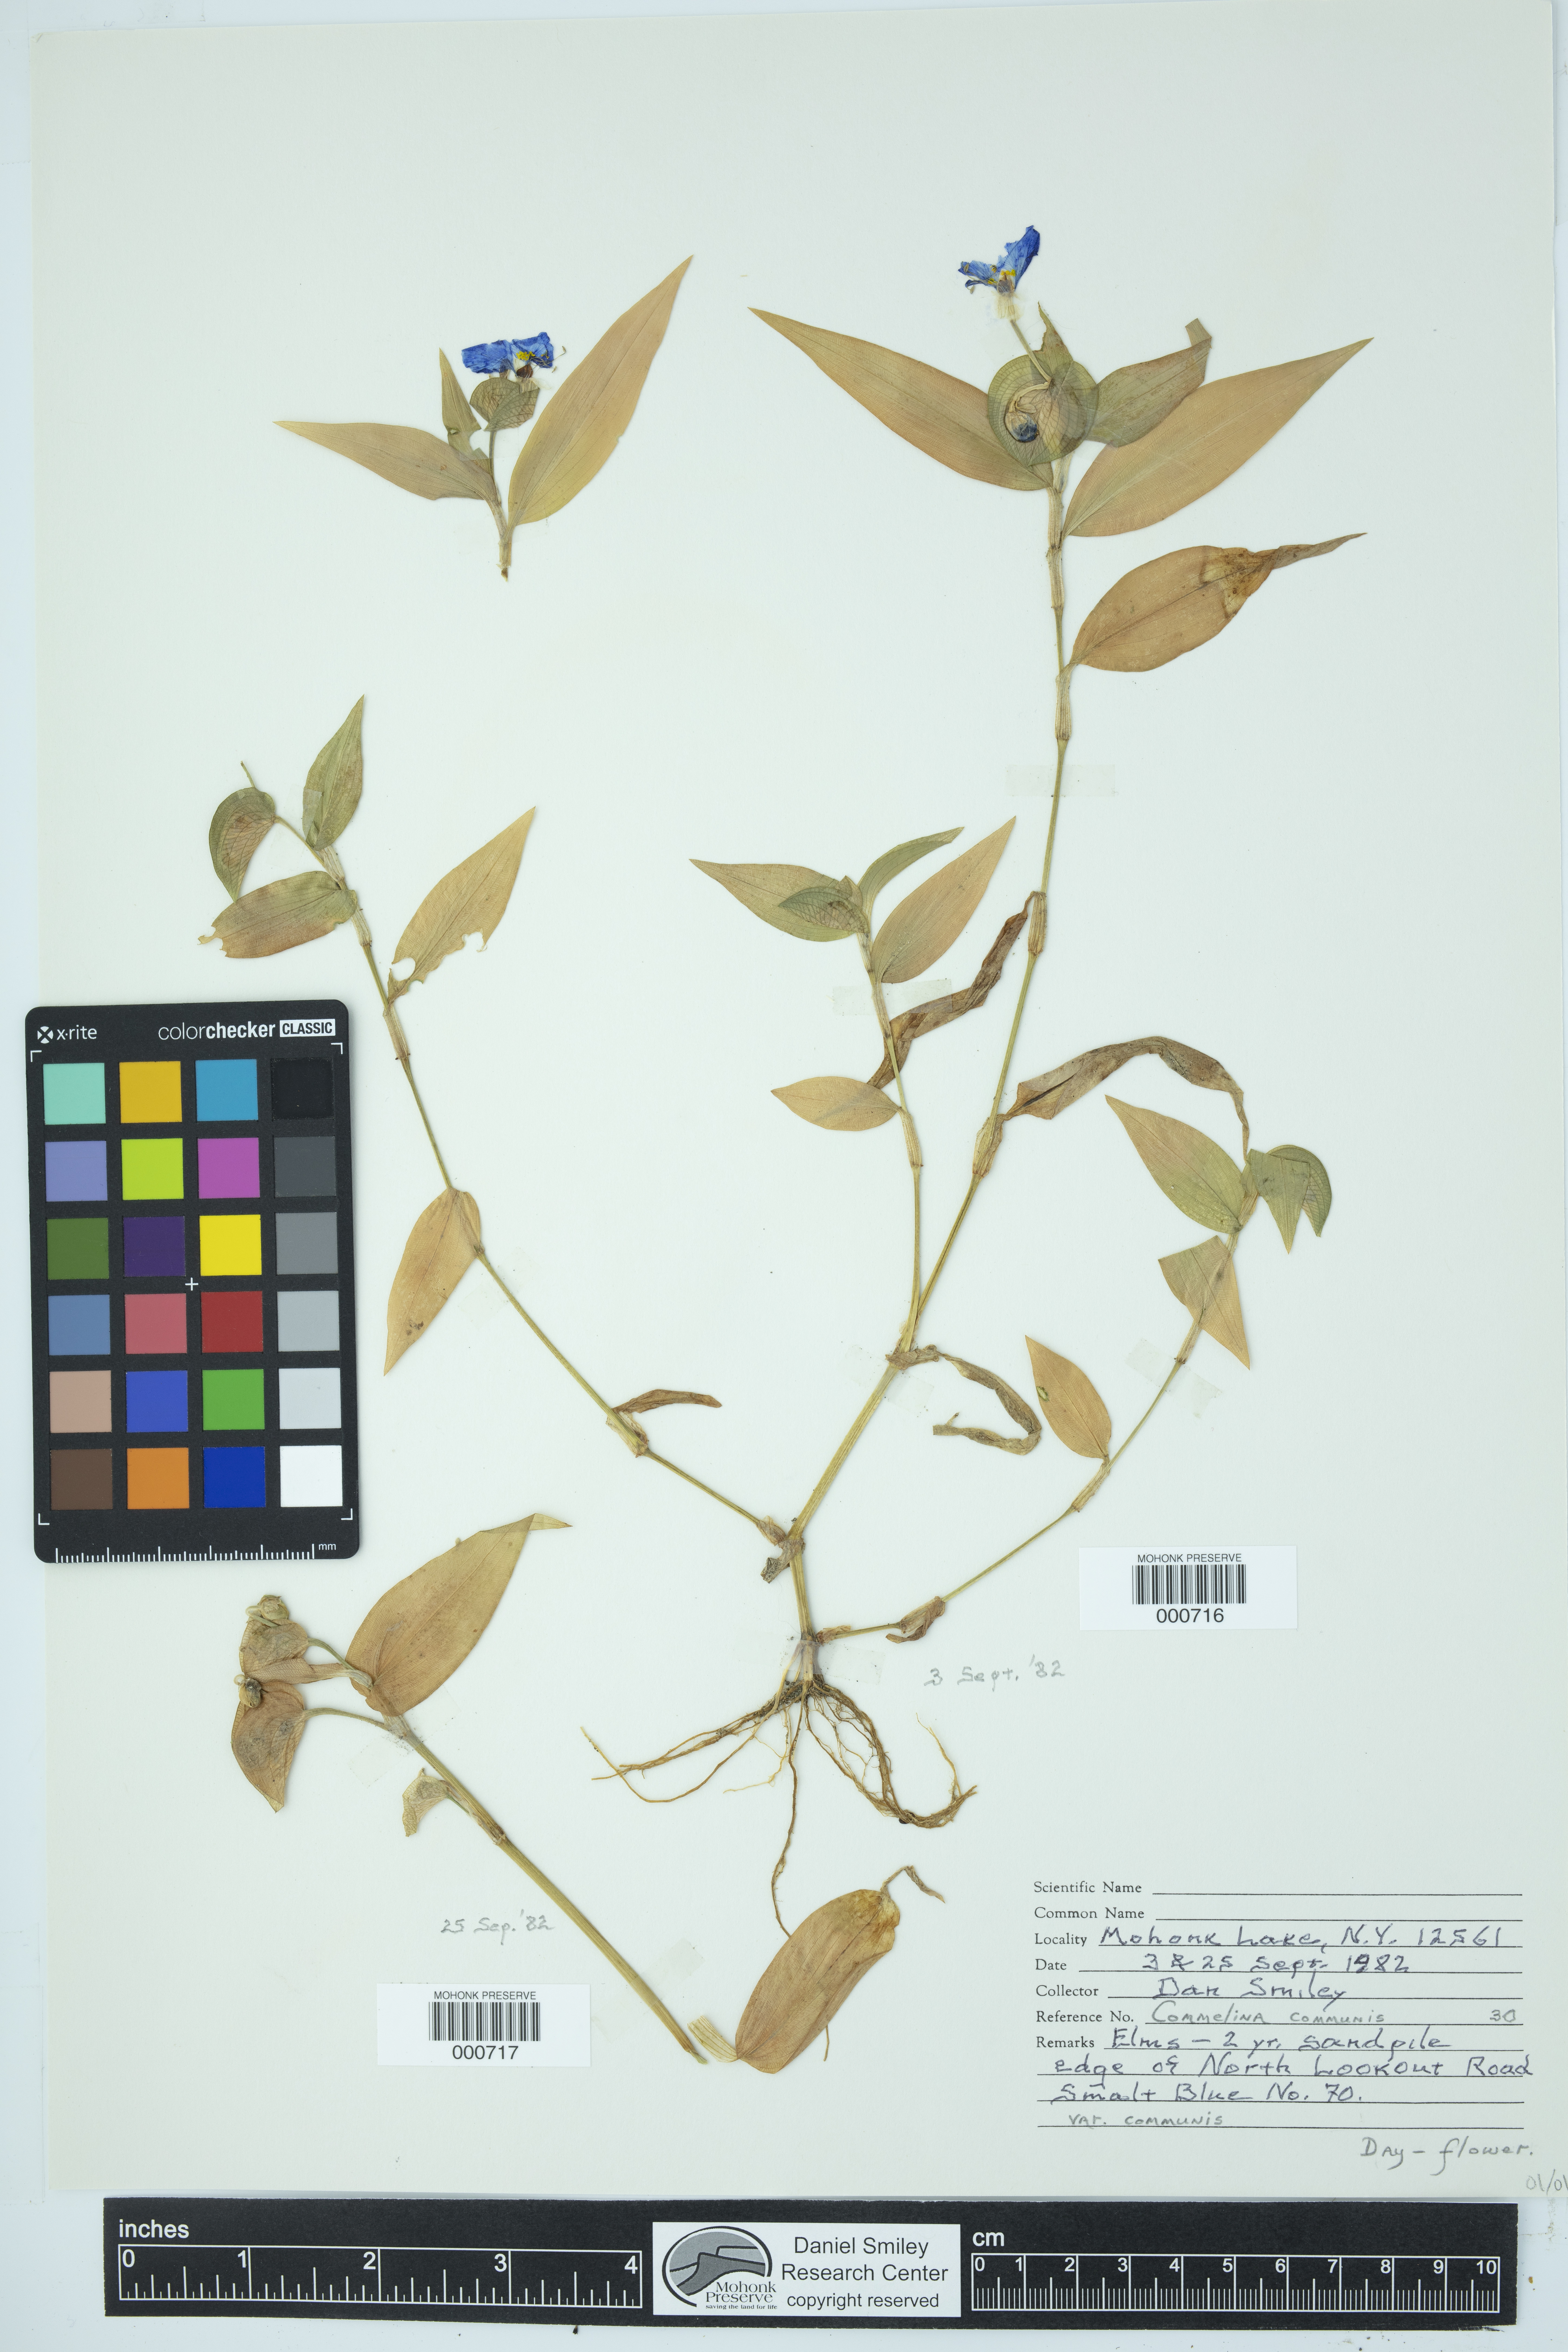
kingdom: Plantae
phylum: Tracheophyta
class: Liliopsida
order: Commelinales
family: Commelinaceae
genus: Commelina
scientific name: Commelina communis
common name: Asiatic dayflower
